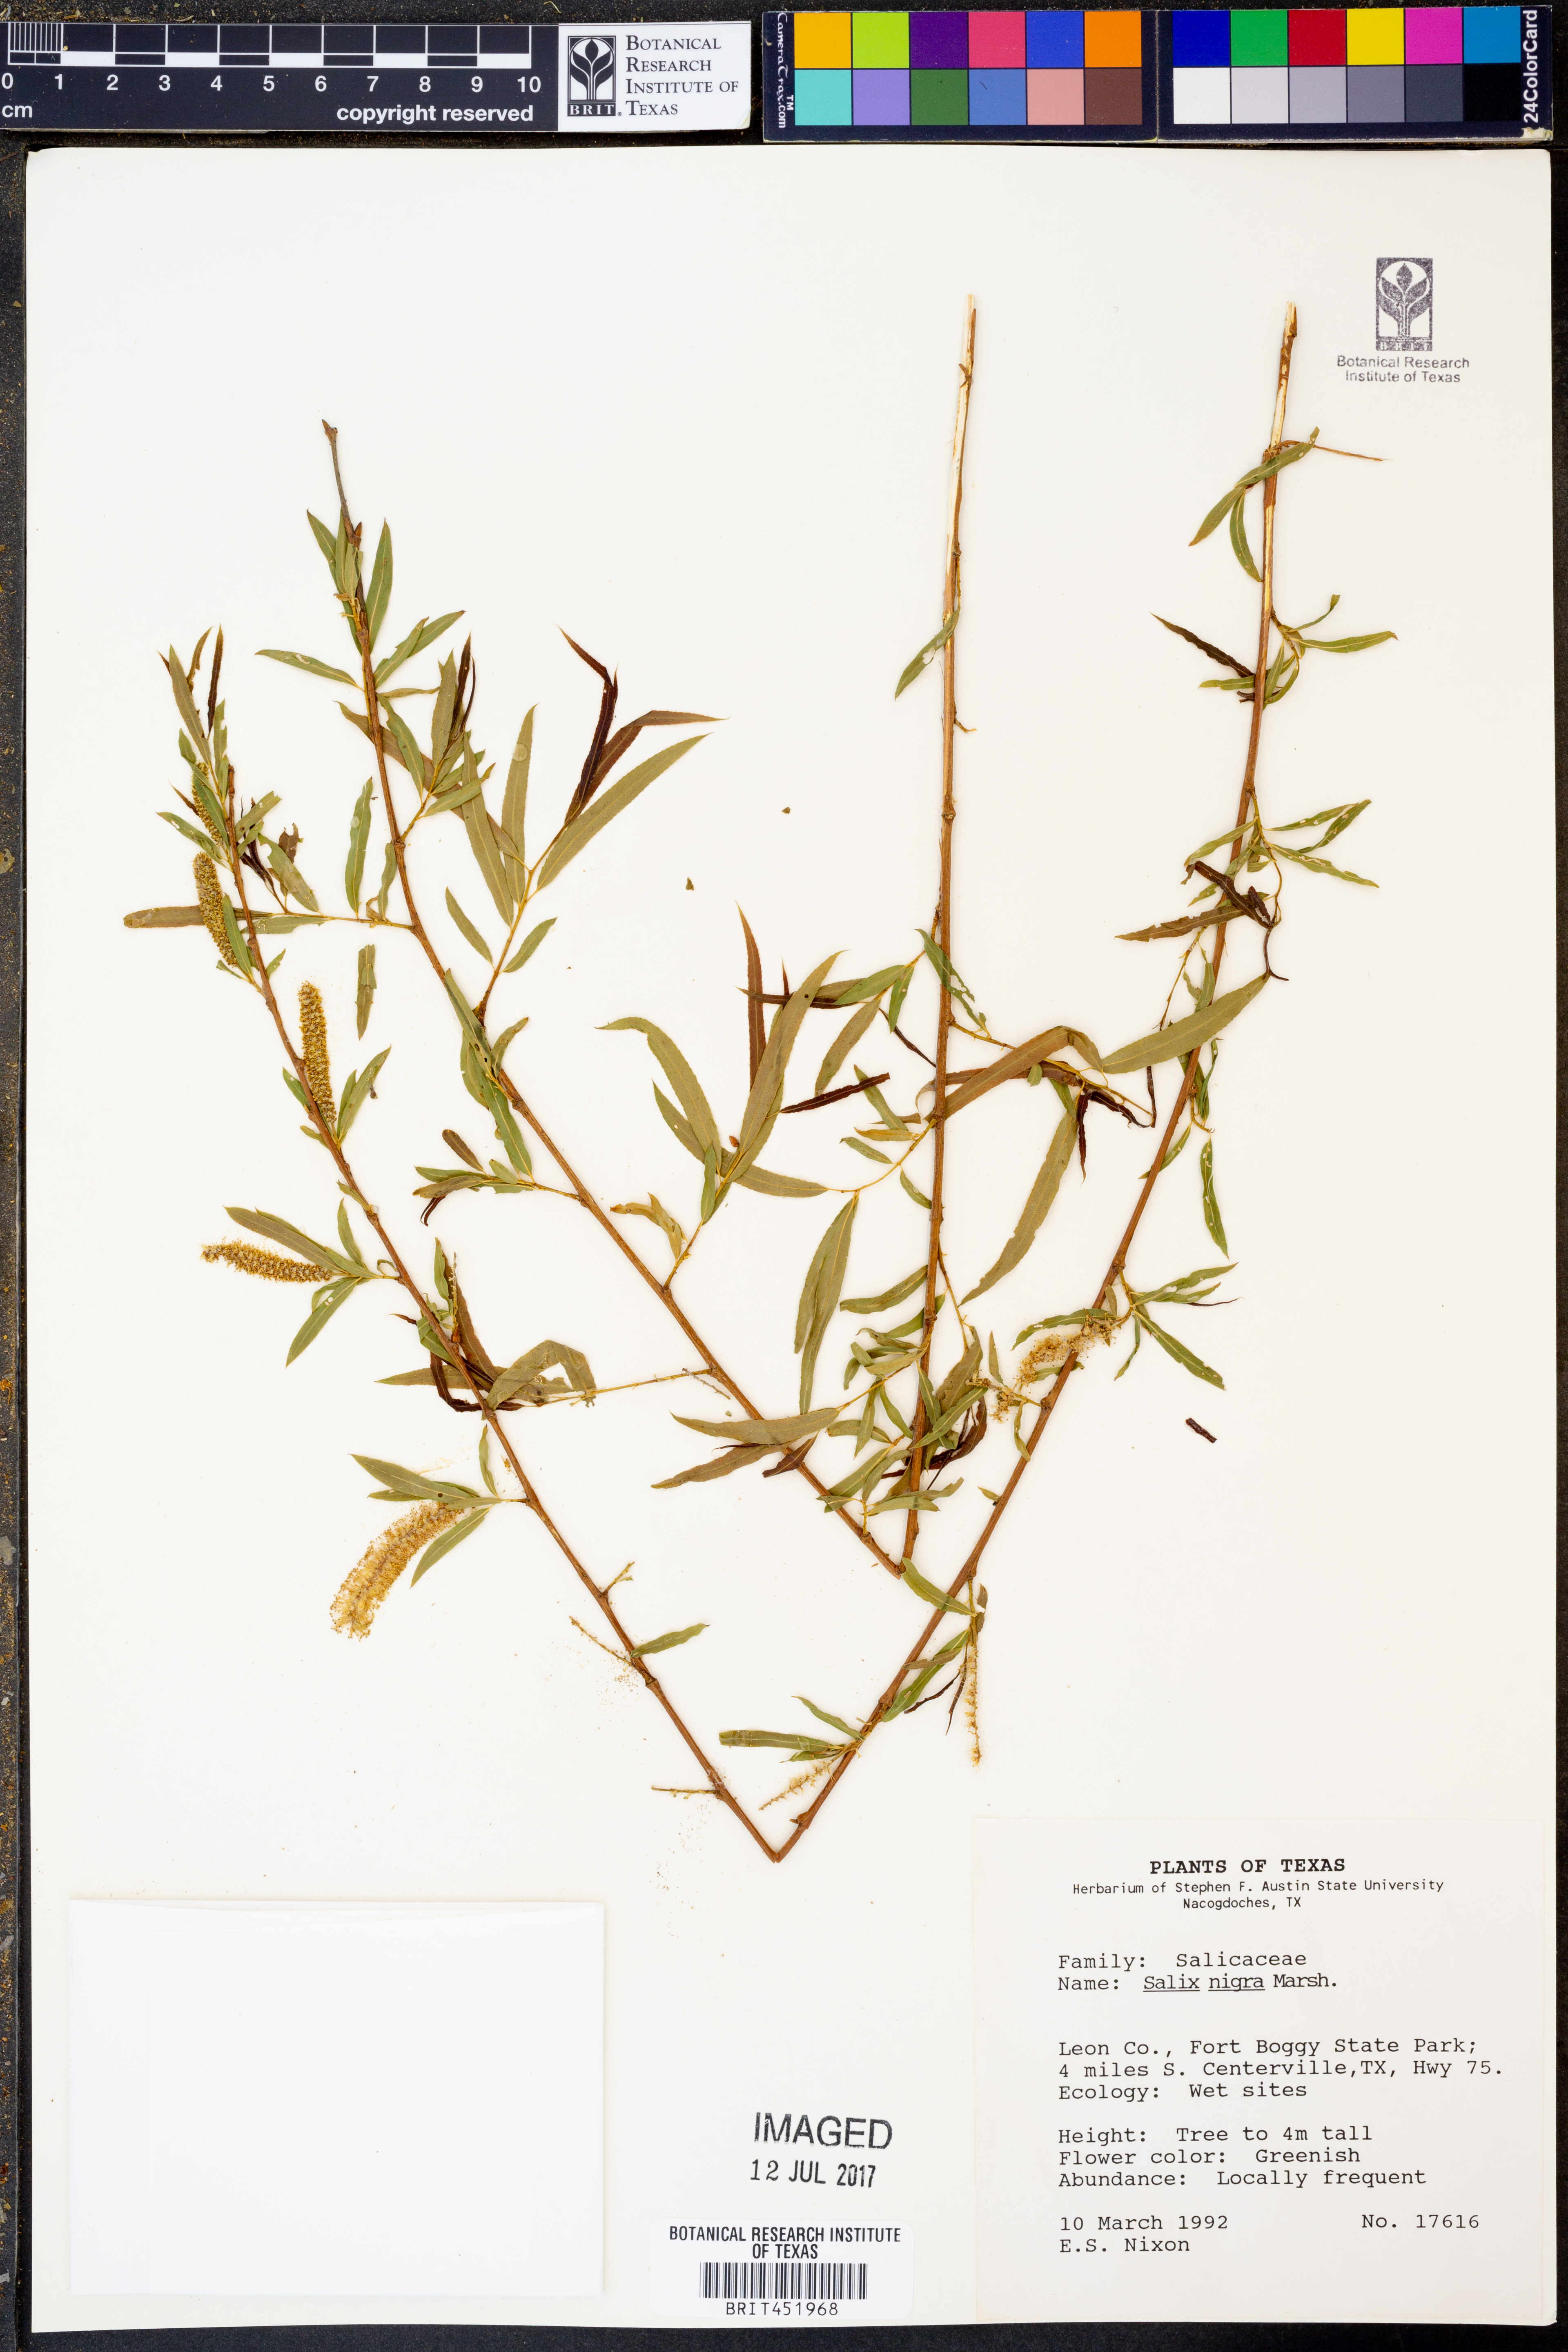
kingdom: Plantae
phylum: Tracheophyta
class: Magnoliopsida
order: Malpighiales
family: Salicaceae
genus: Salix
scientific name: Salix nigra
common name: Black willow
